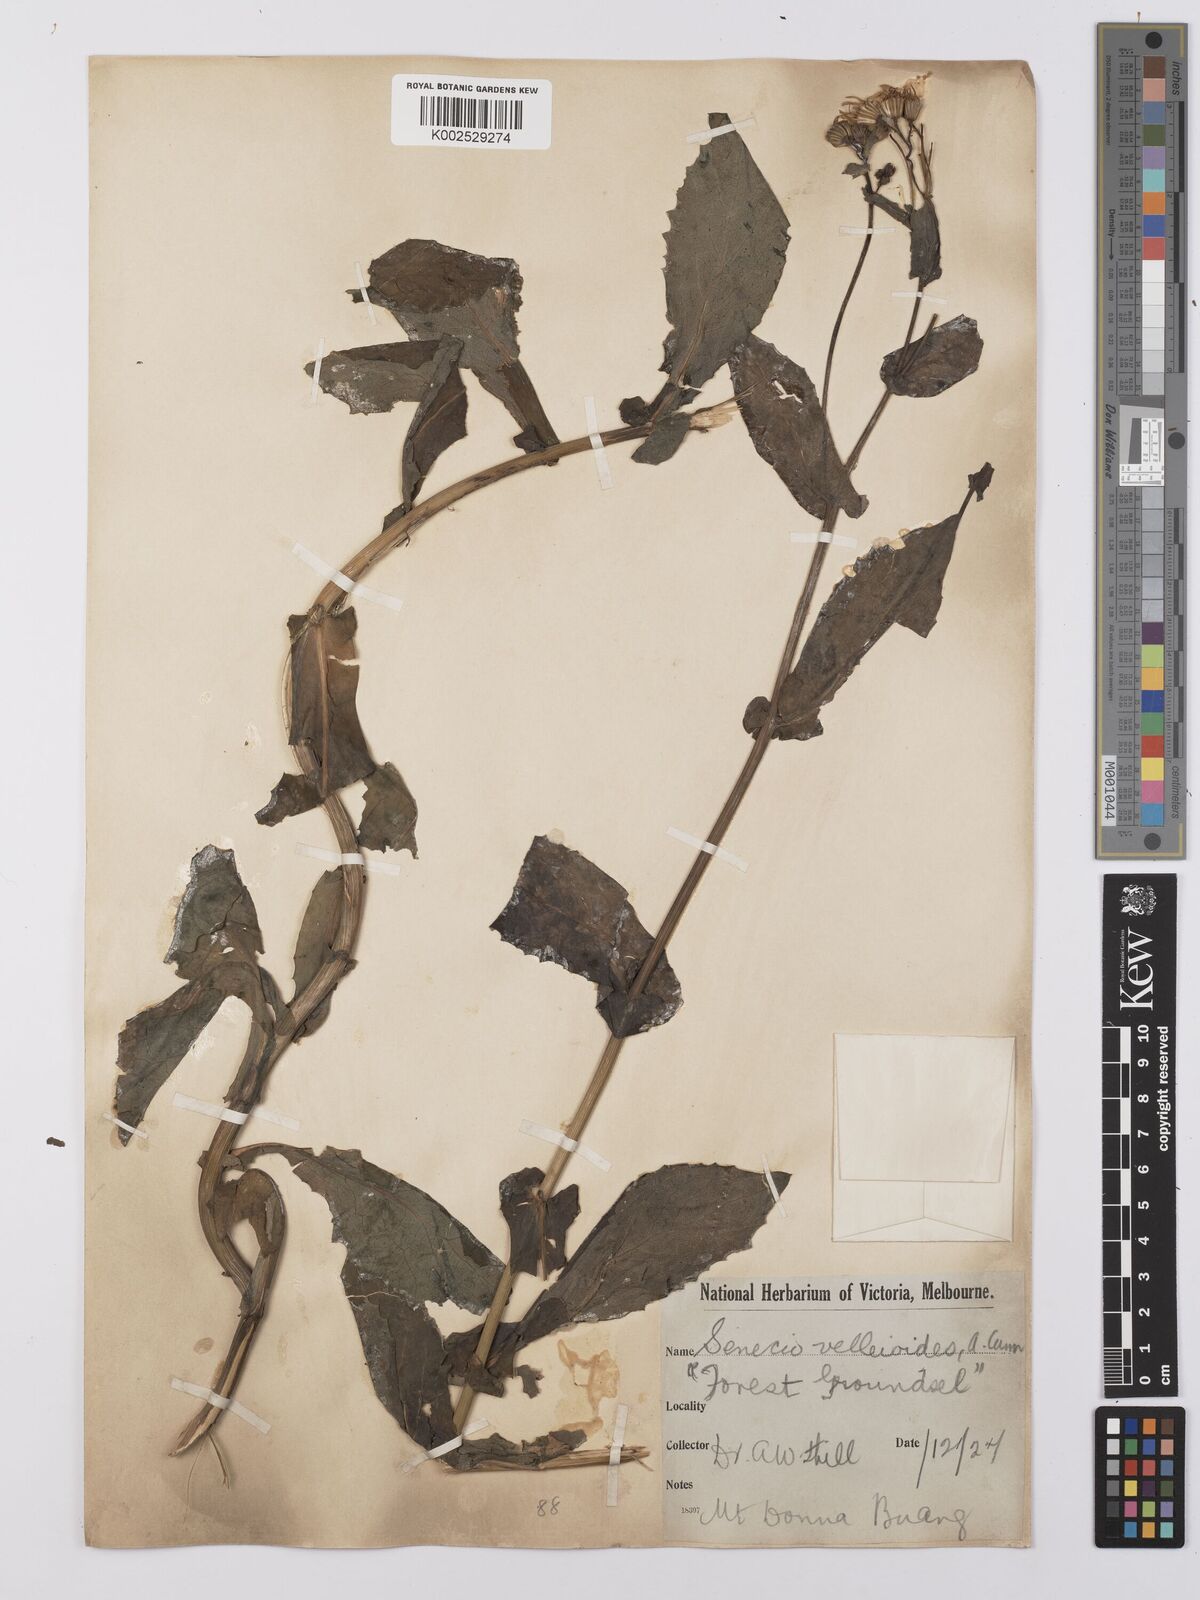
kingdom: Plantae
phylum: Tracheophyta
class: Magnoliopsida
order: Asterales
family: Asteraceae
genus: Lordhowea
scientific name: Lordhowea velleioides
